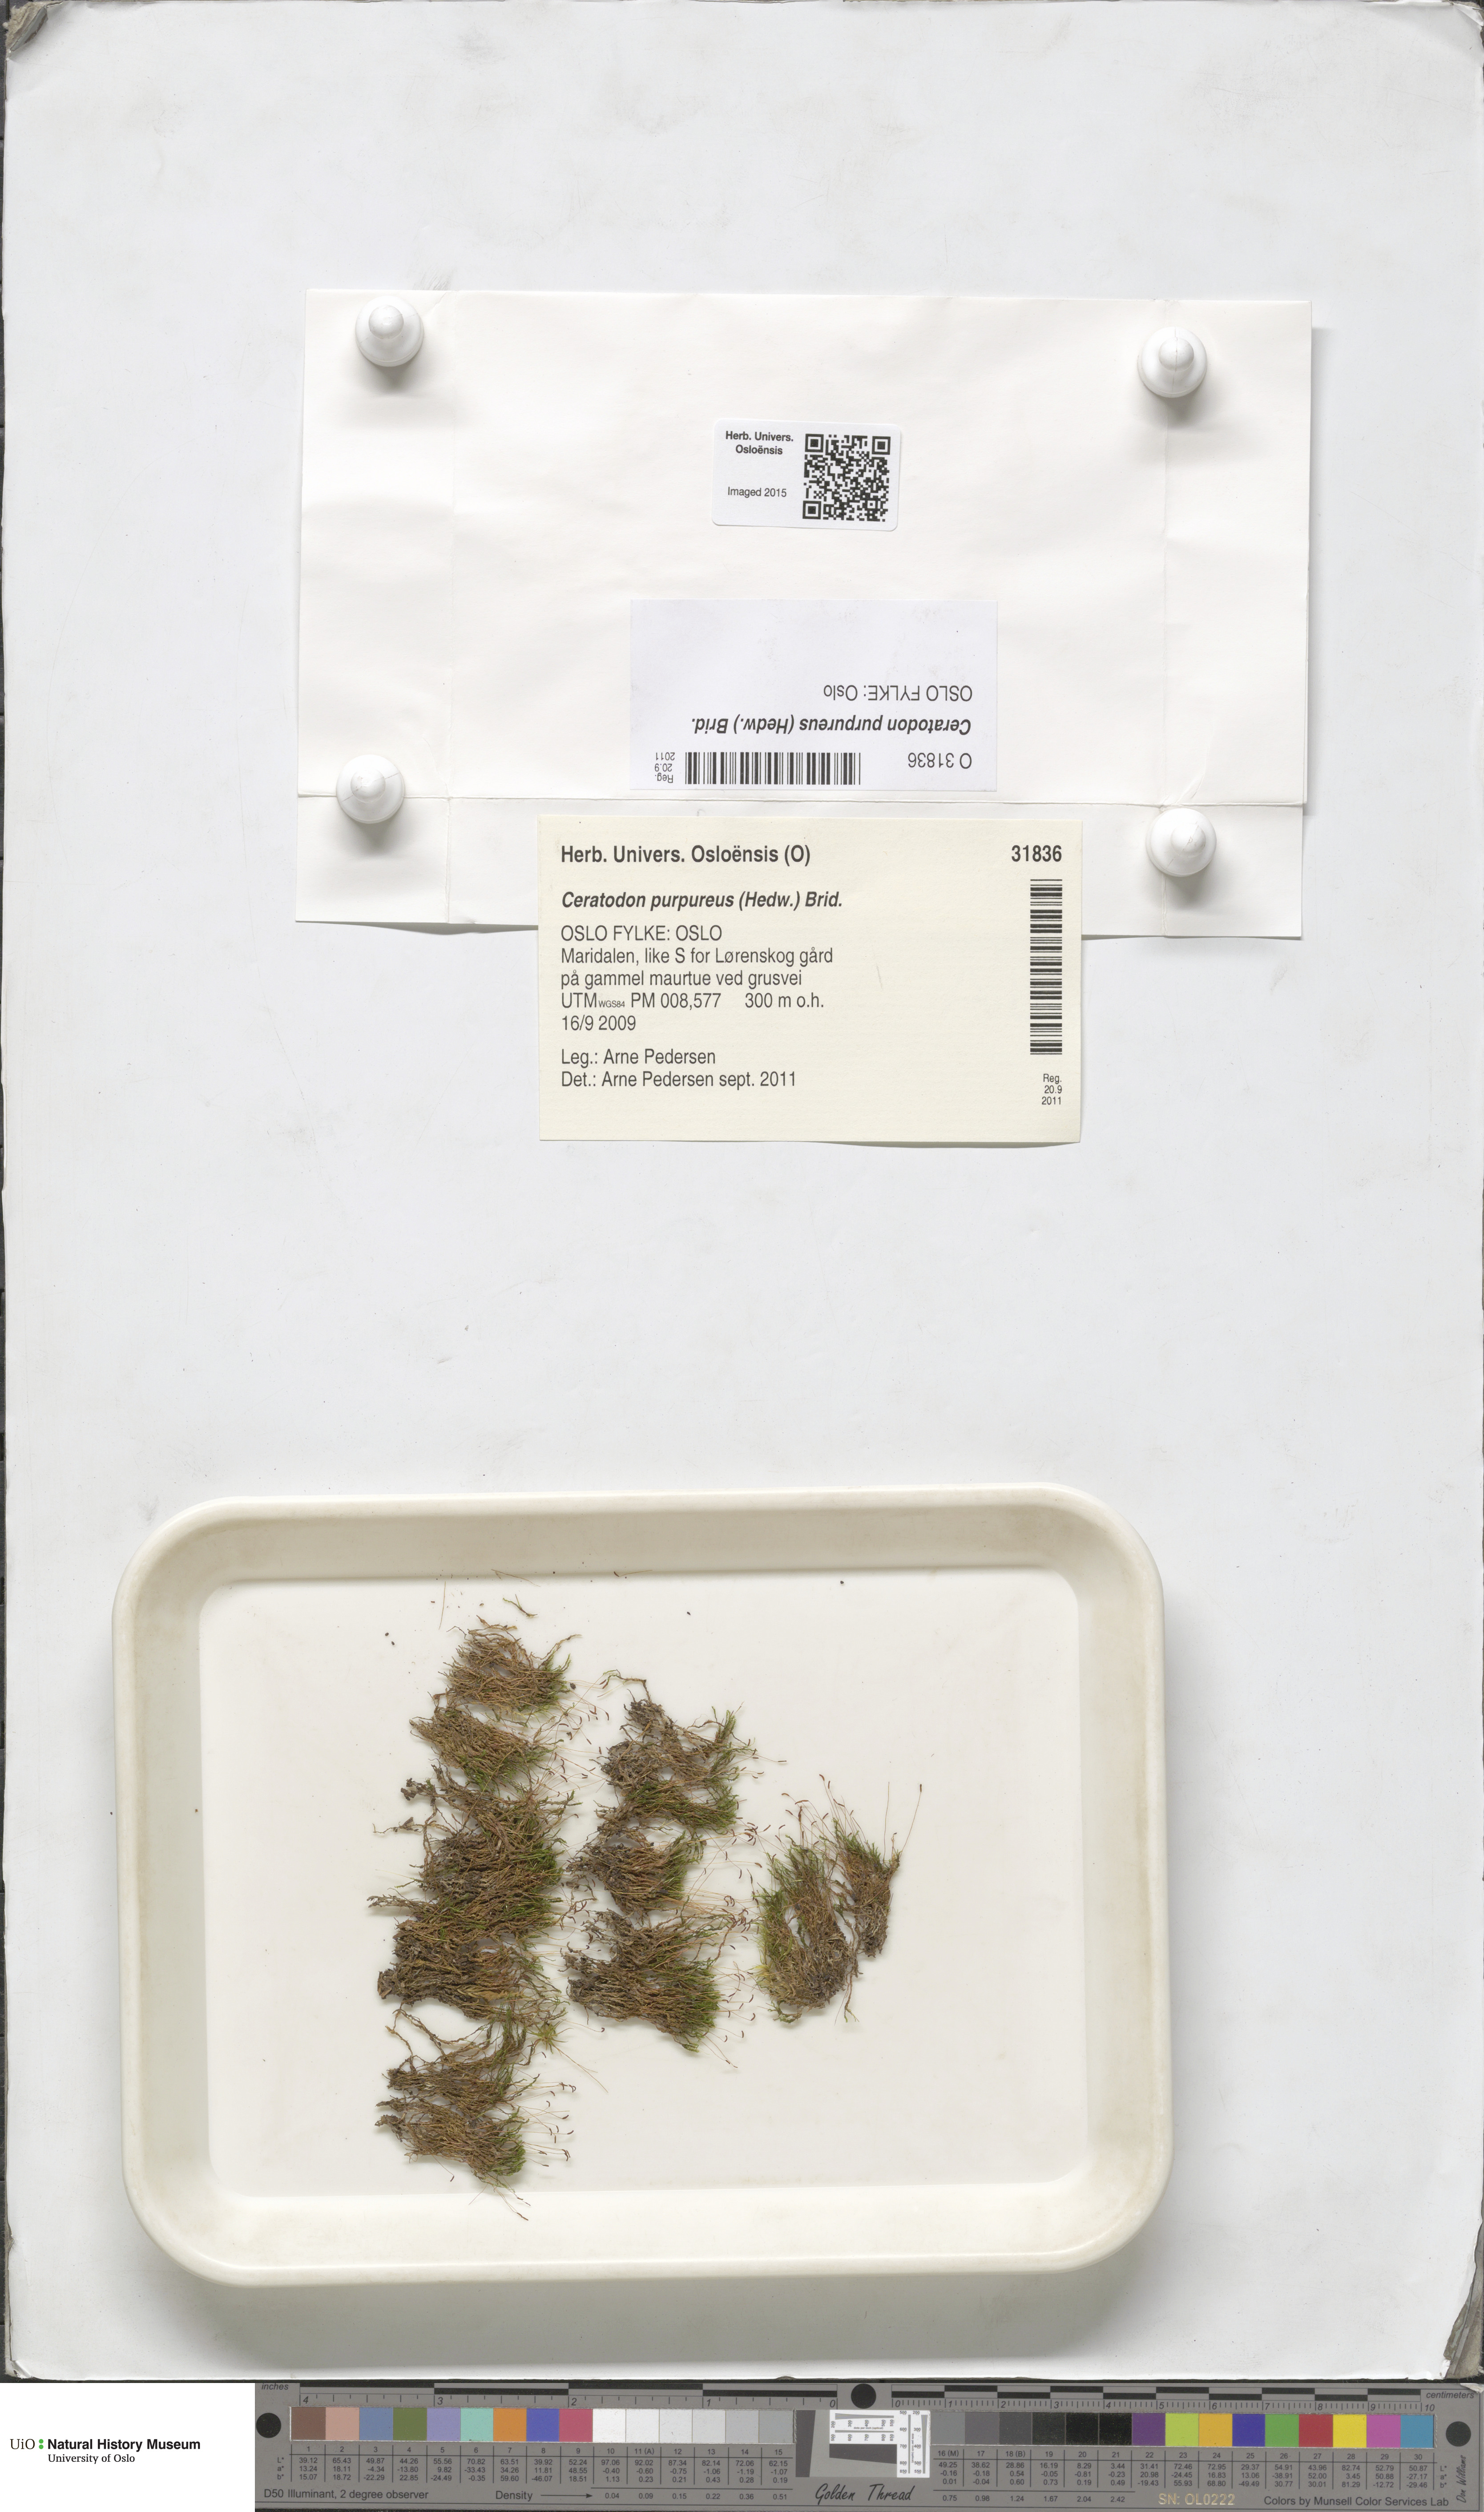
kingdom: Plantae
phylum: Bryophyta
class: Bryopsida
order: Dicranales
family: Ditrichaceae
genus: Ceratodon
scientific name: Ceratodon purpureus
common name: Redshank
